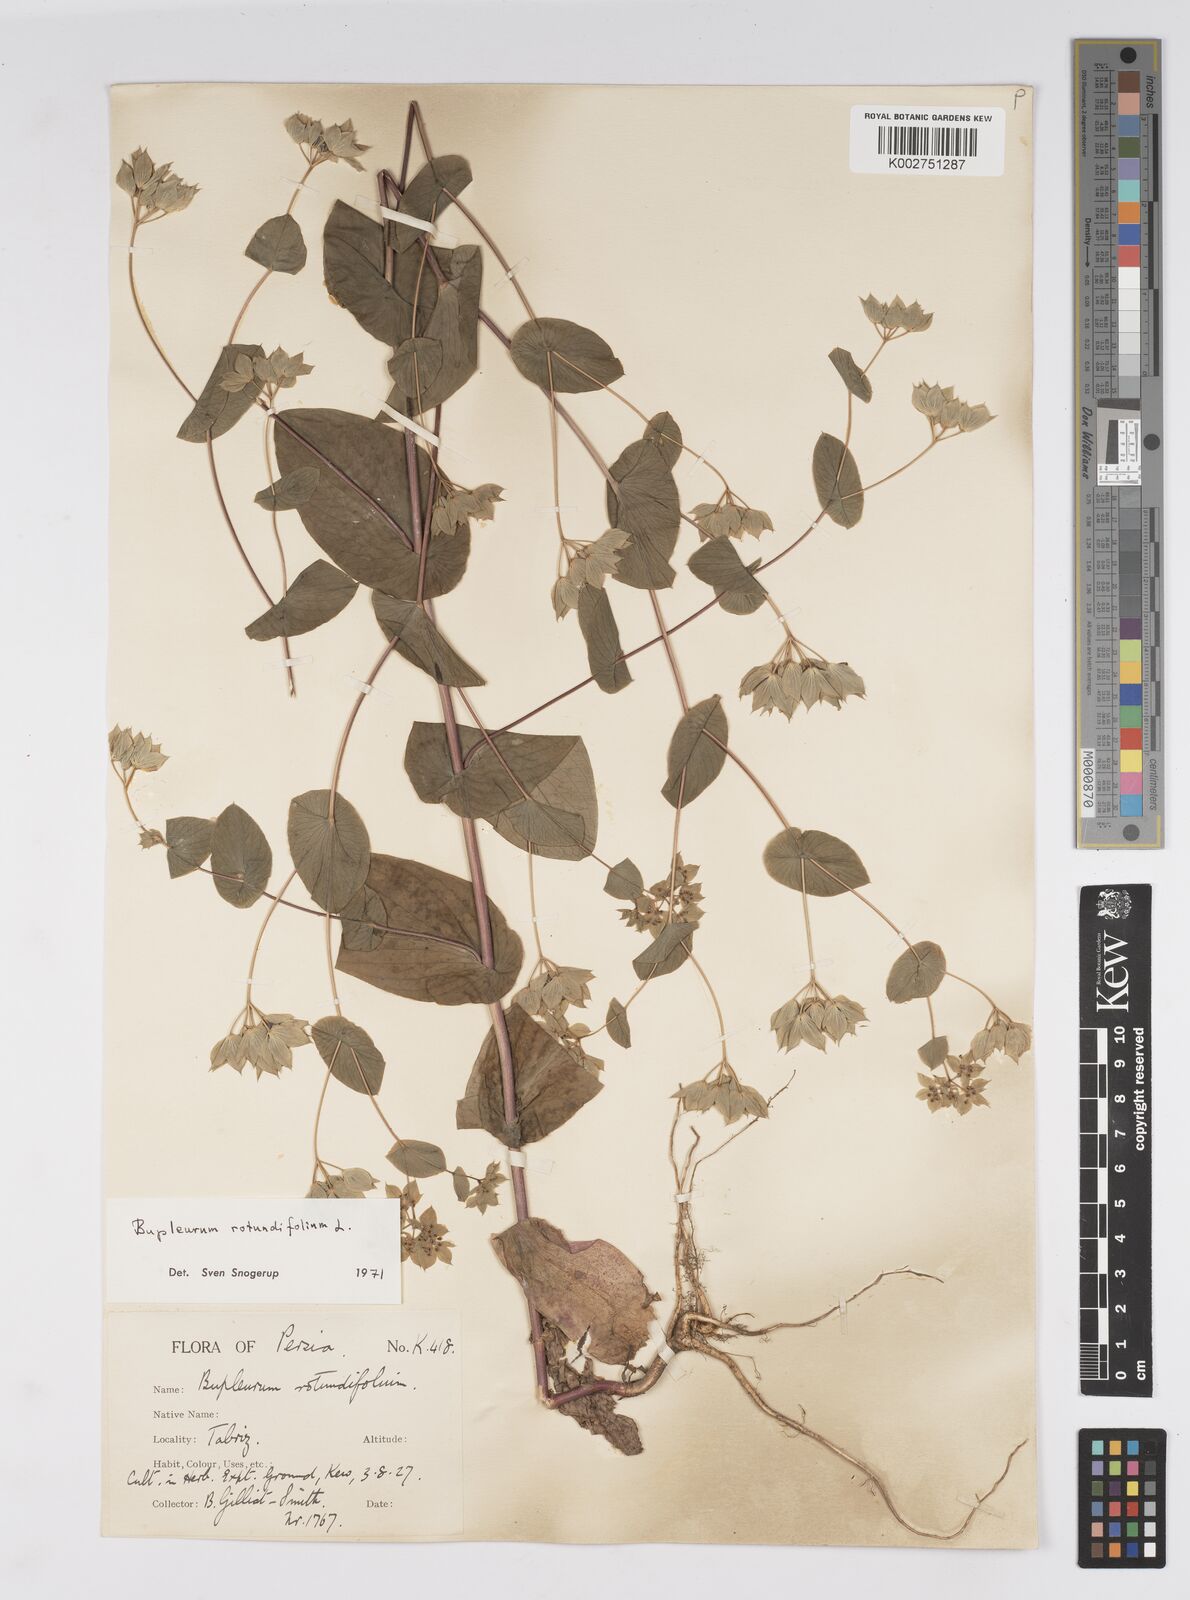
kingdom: Plantae
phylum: Tracheophyta
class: Magnoliopsida
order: Apiales
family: Apiaceae
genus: Bupleurum
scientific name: Bupleurum rotundifolium
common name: Thorow-wax
